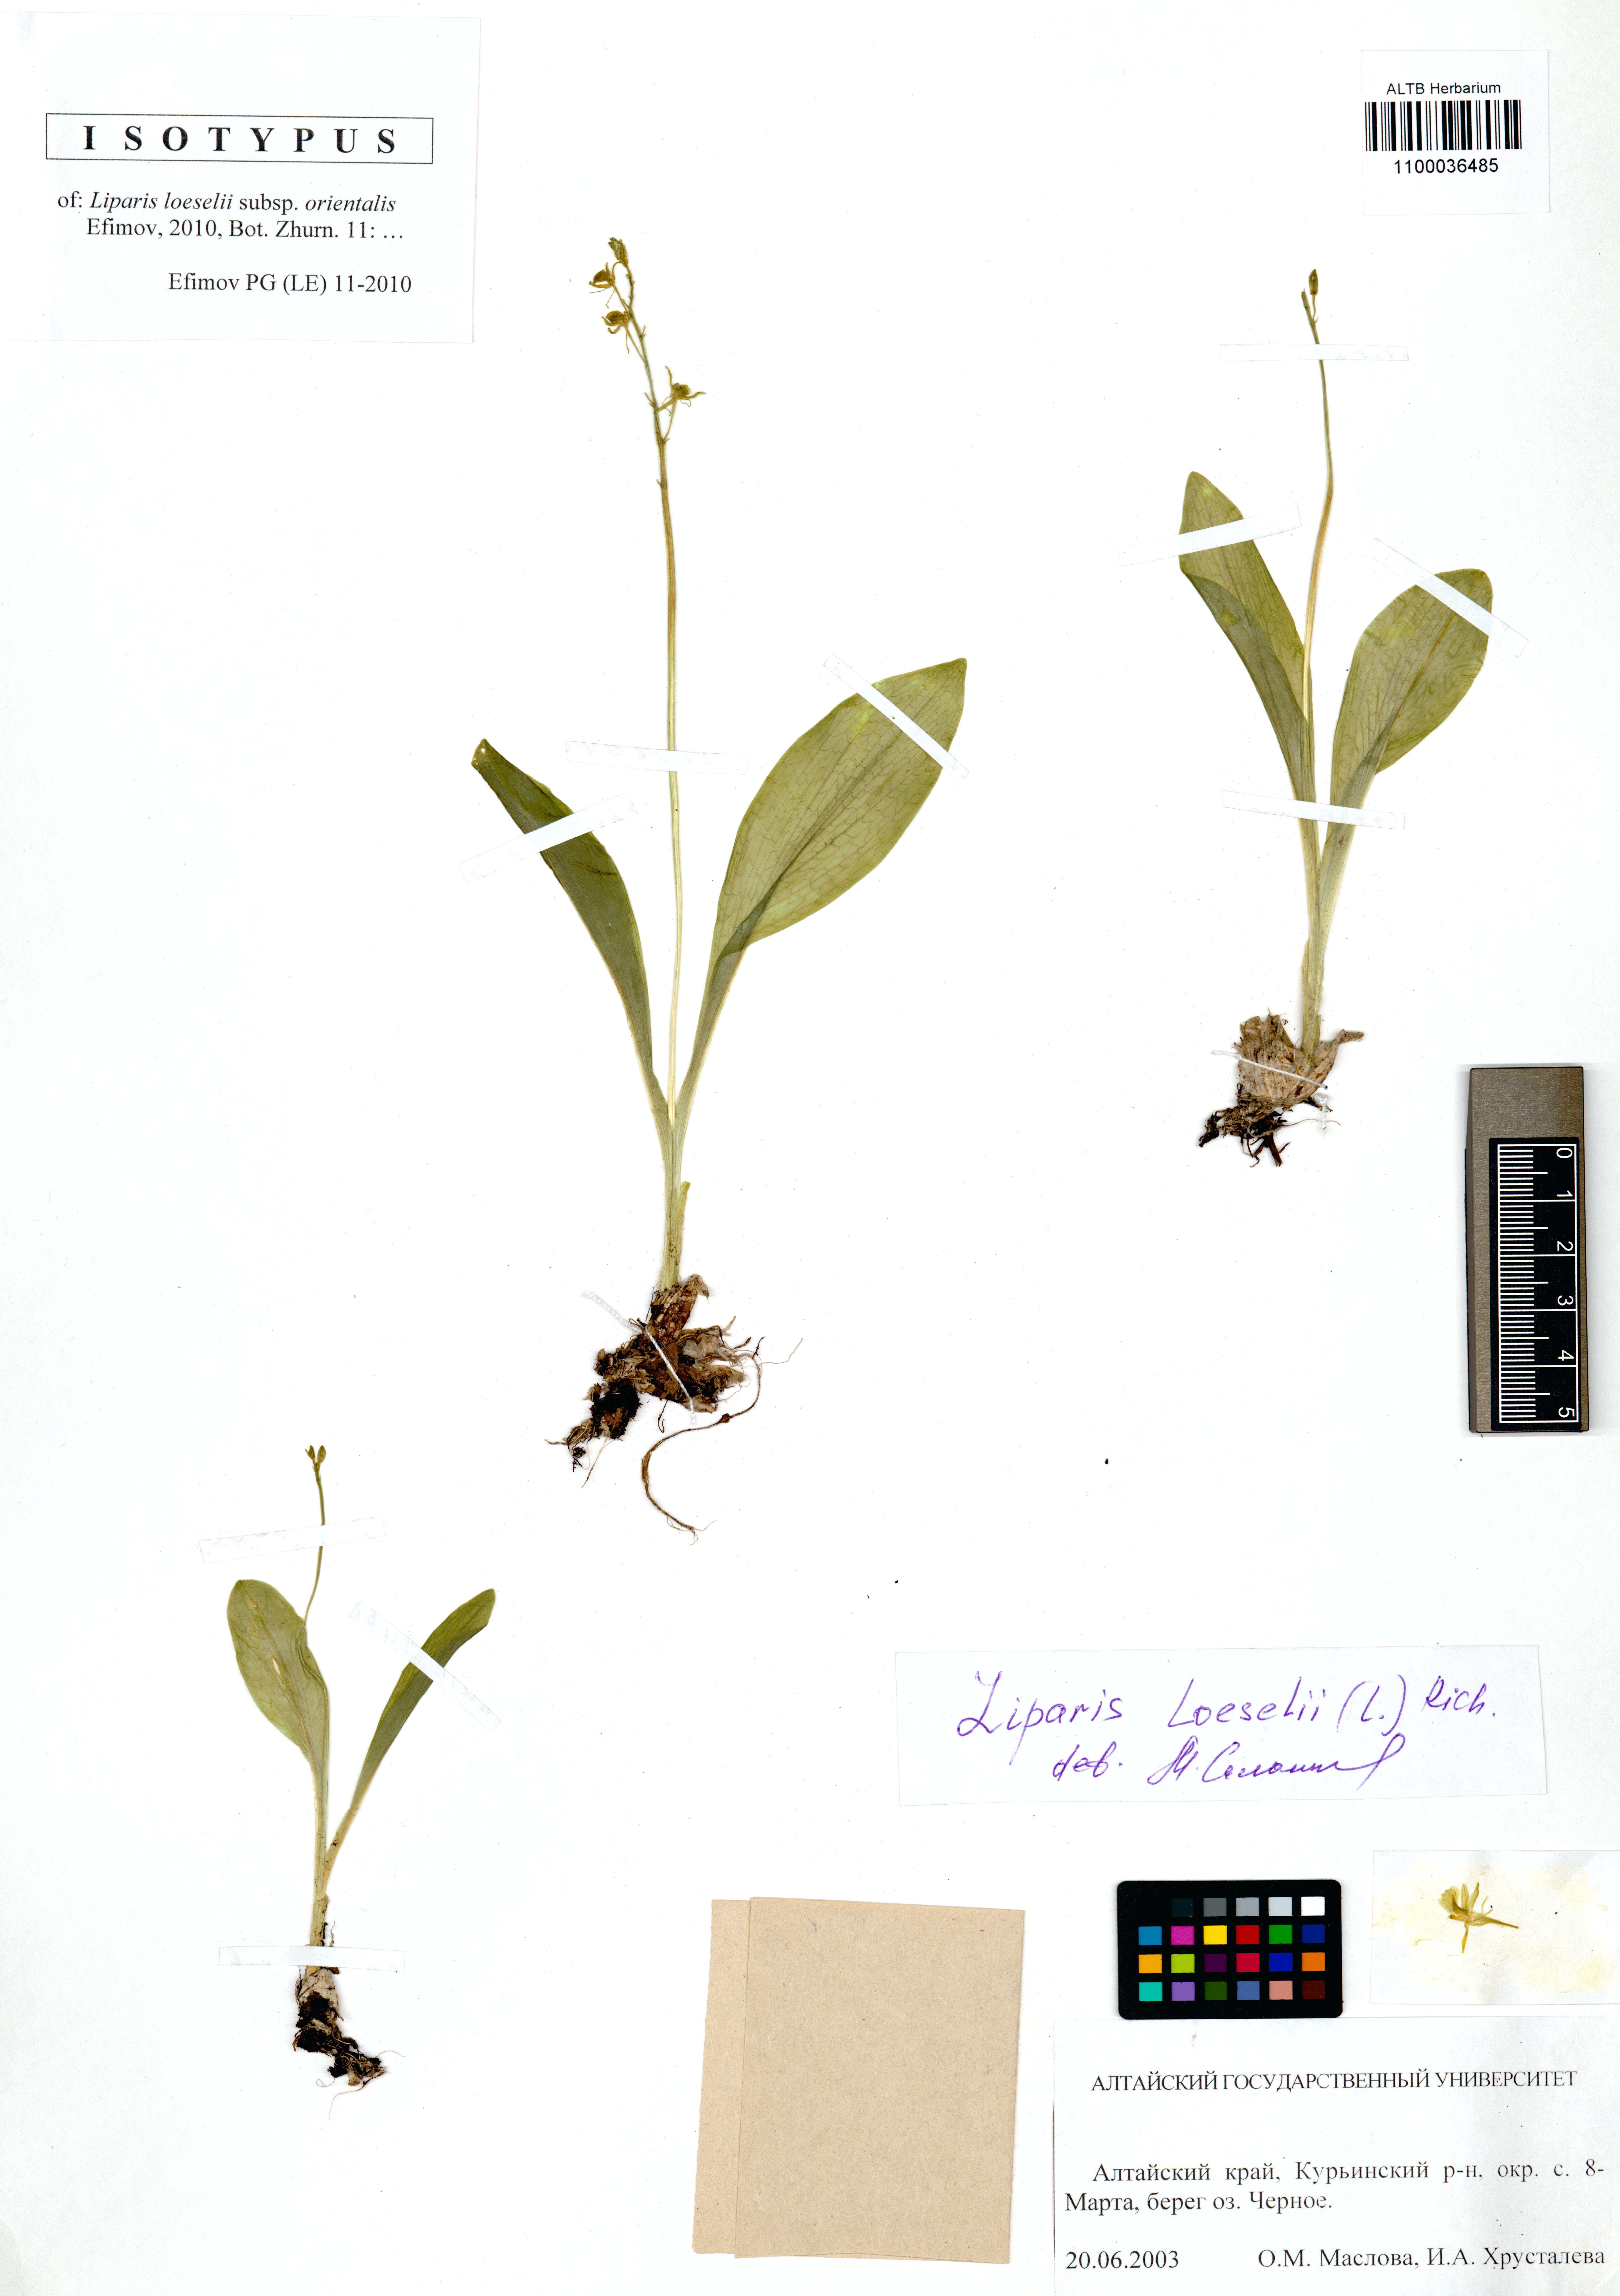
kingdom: Animalia
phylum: Arthropoda
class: Insecta
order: Coleoptera
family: Curculionidae
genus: Liparis
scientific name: Liparis loeselii
